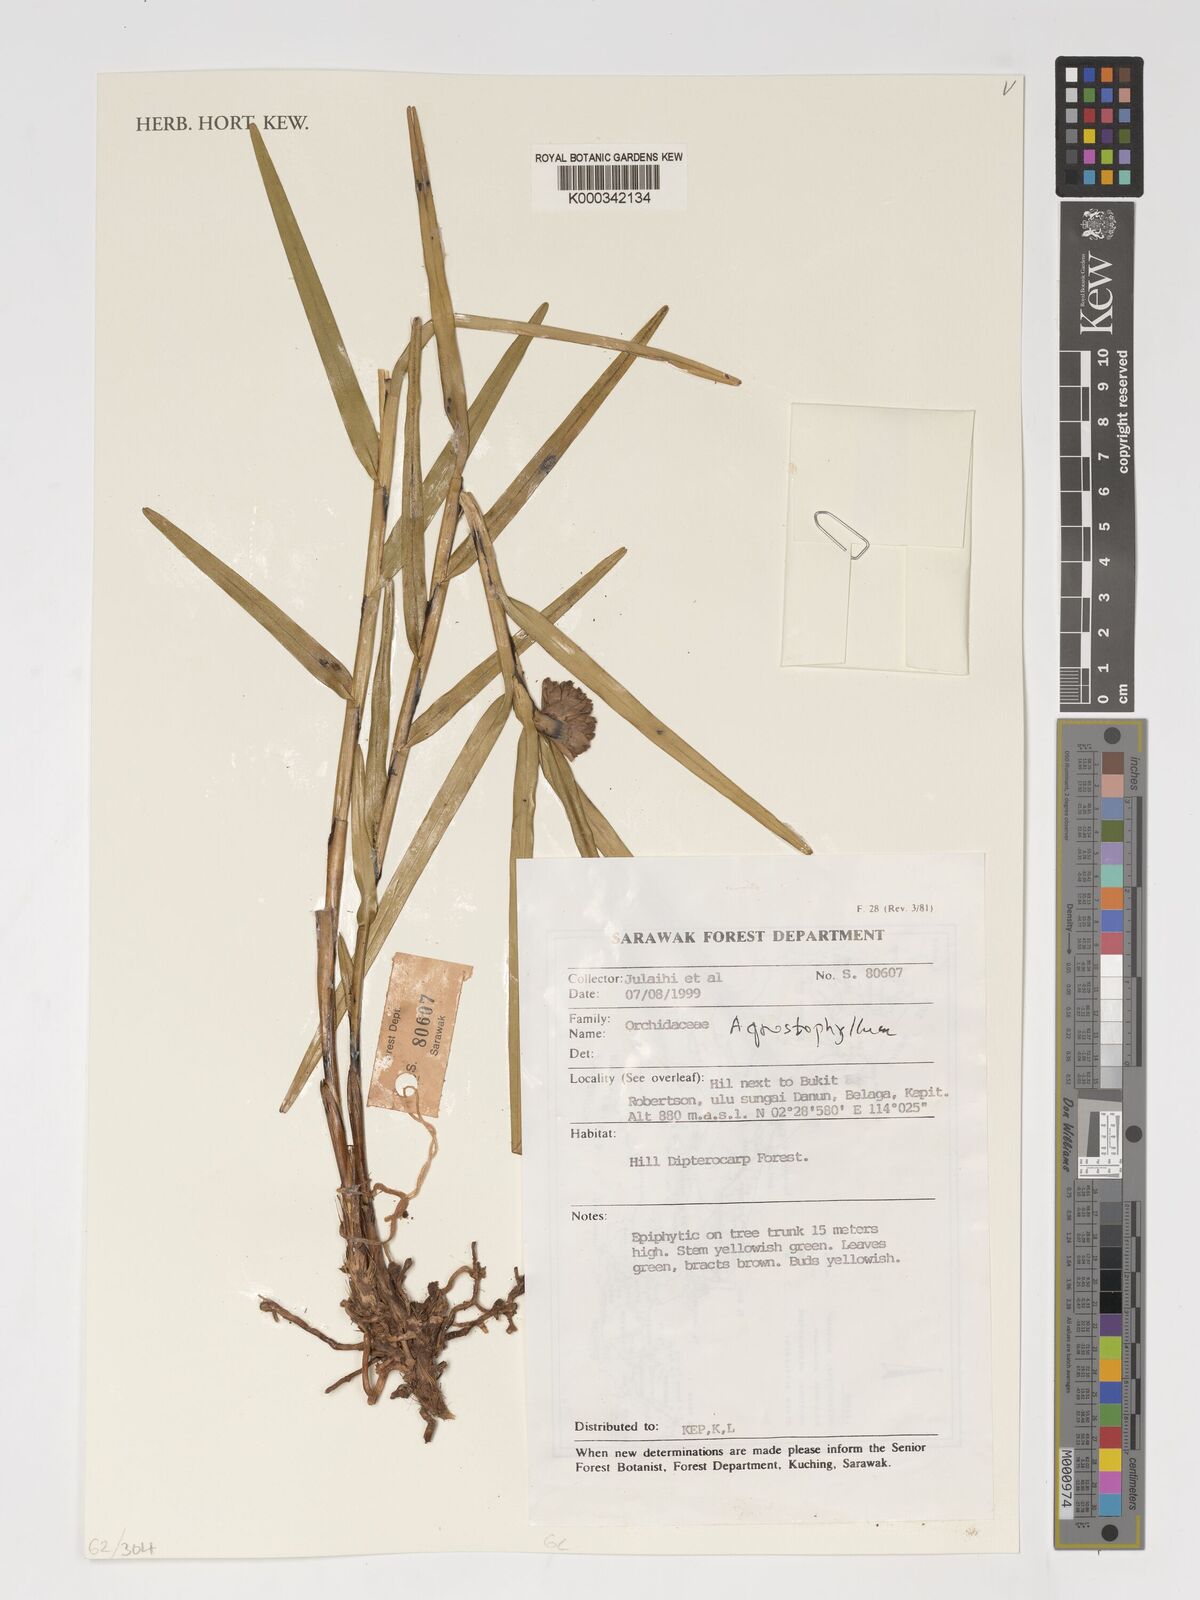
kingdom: Plantae
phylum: Tracheophyta
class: Liliopsida
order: Asparagales
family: Orchidaceae
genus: Agrostophyllum
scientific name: Agrostophyllum
